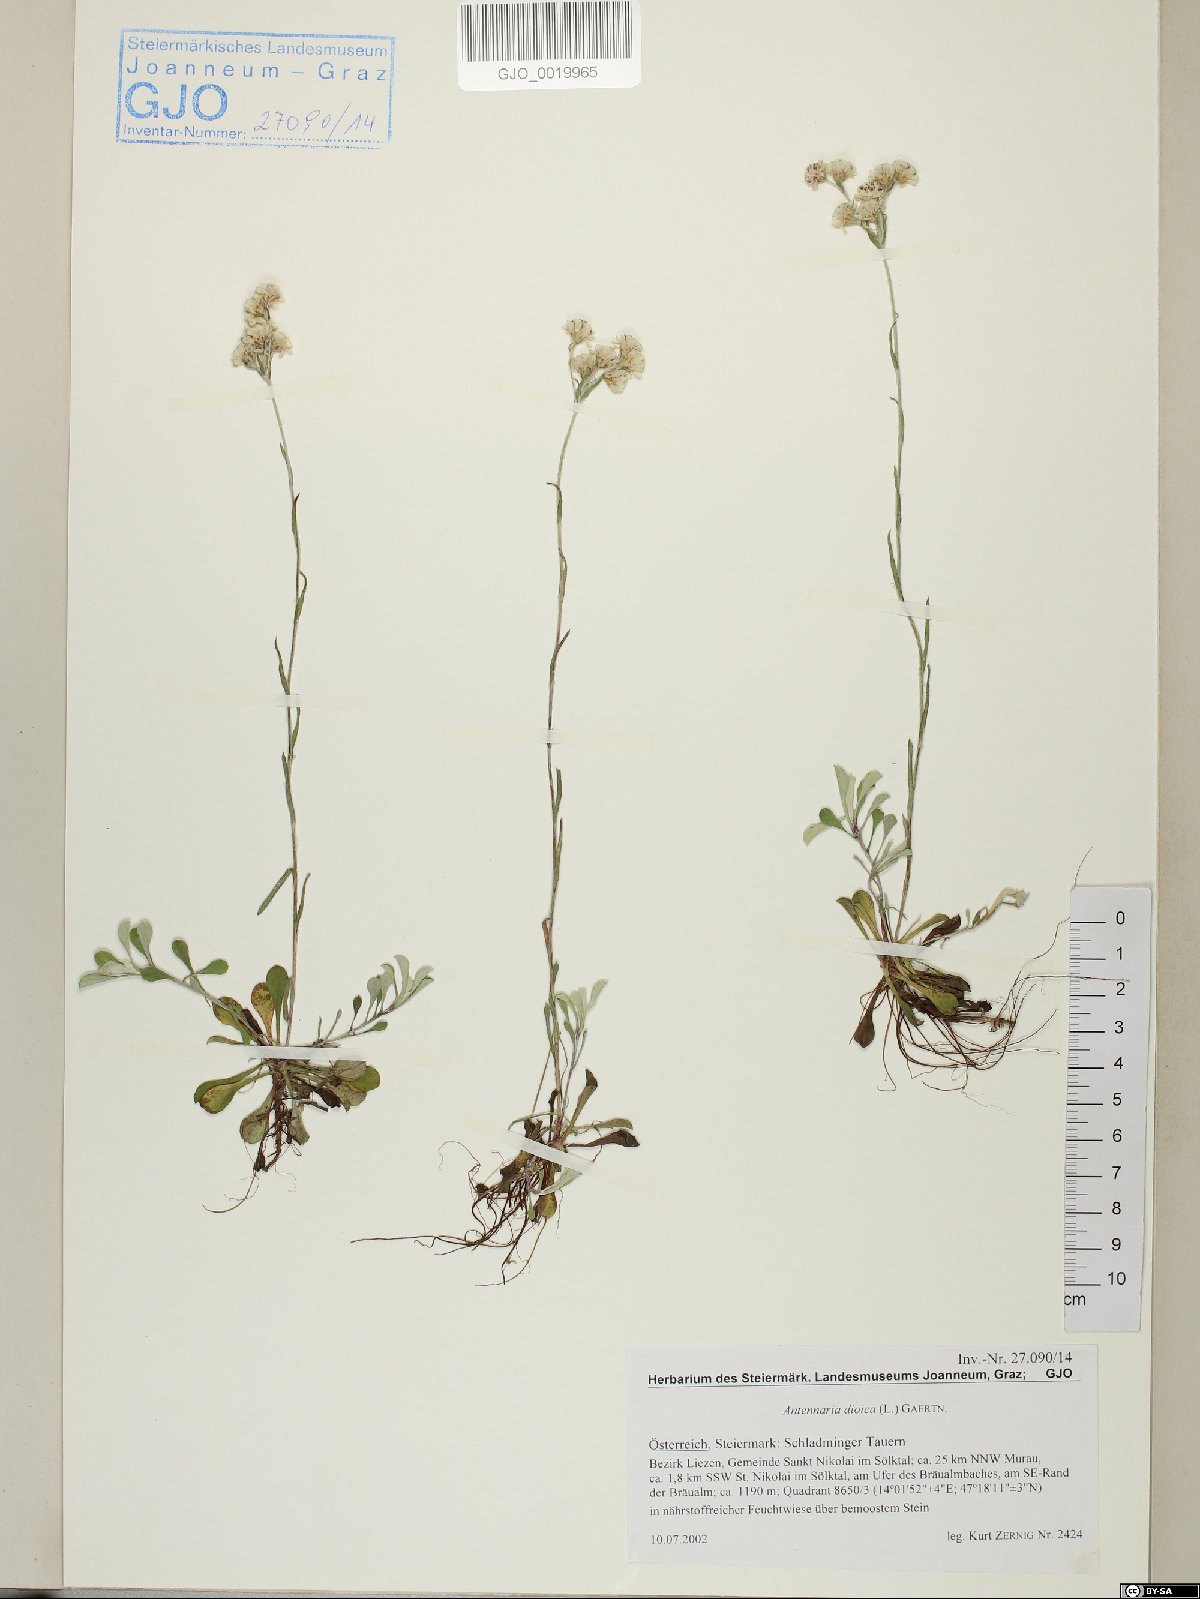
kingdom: Plantae
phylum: Tracheophyta
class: Magnoliopsida
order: Asterales
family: Asteraceae
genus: Antennaria
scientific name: Antennaria dioica
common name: Mountain everlasting
